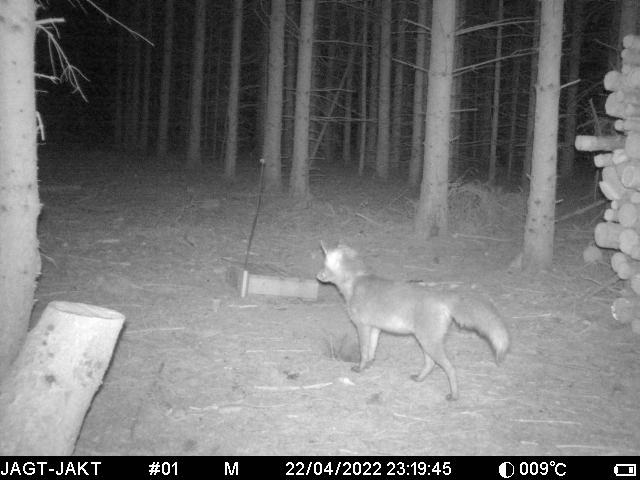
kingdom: Animalia
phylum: Chordata
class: Mammalia
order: Carnivora
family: Canidae
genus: Vulpes
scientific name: Vulpes vulpes
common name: Ræv
